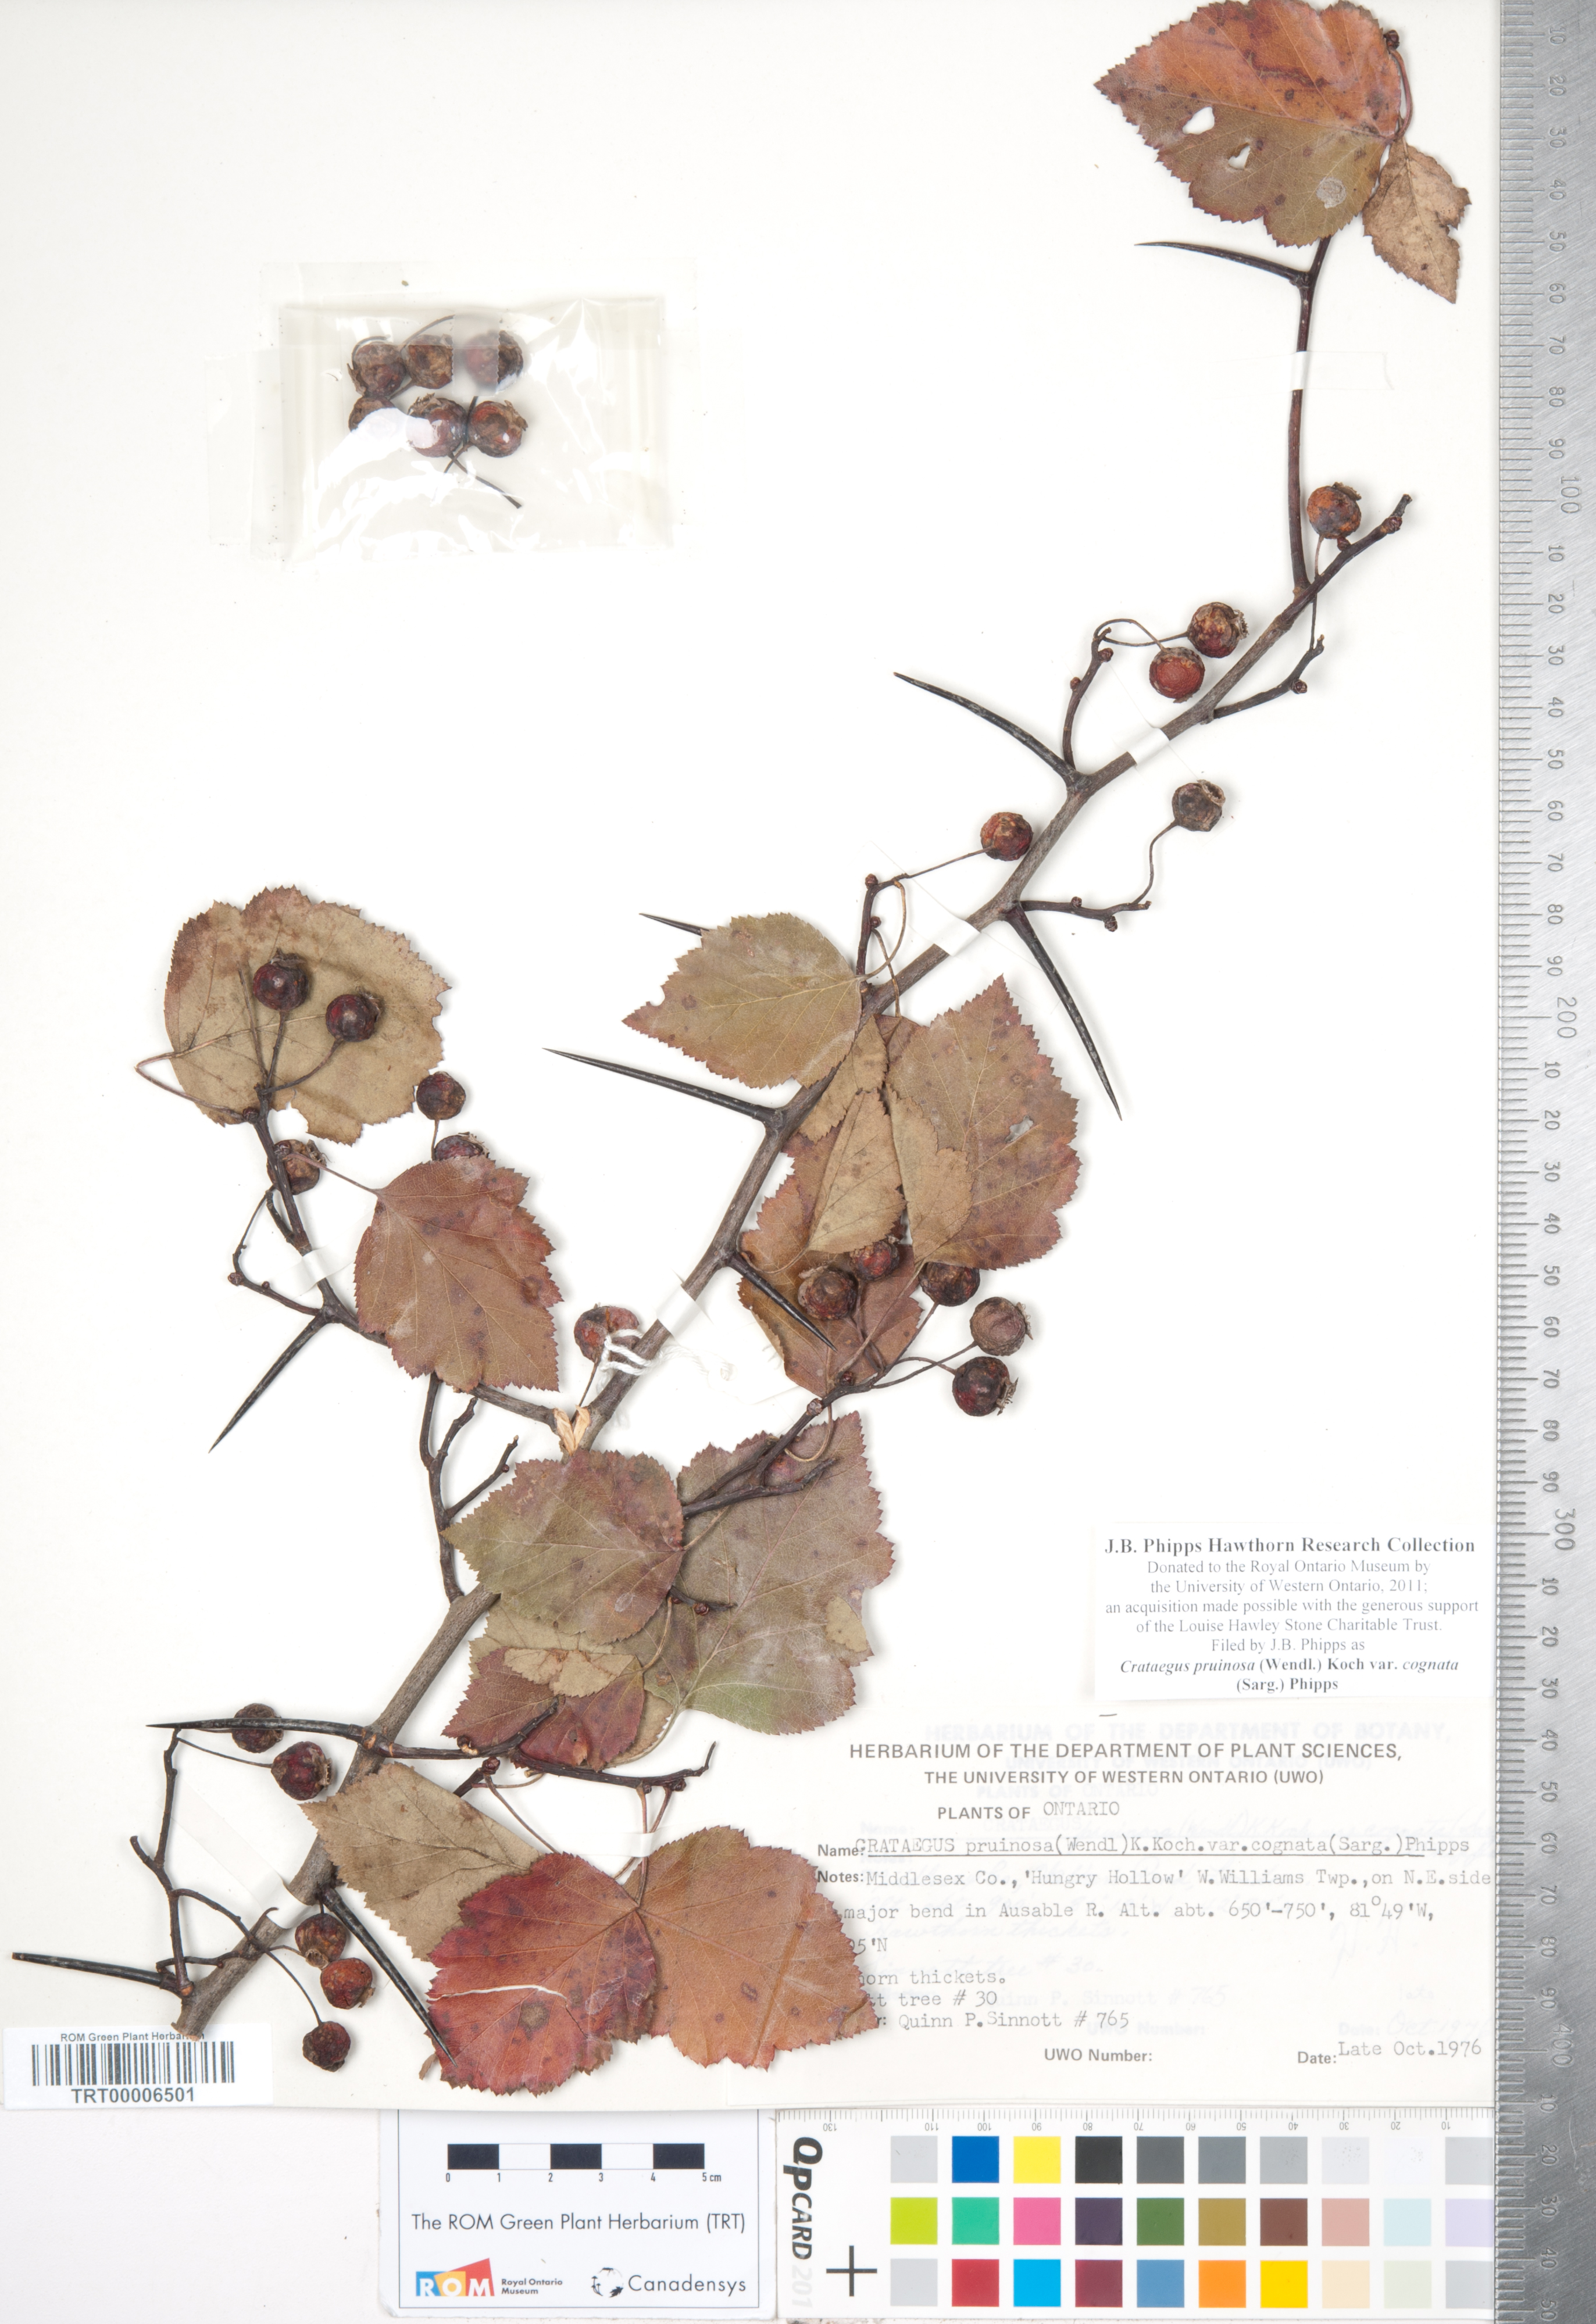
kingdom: Plantae
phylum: Tracheophyta
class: Magnoliopsida
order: Rosales
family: Rosaceae
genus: Crataegus
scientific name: Crataegus
